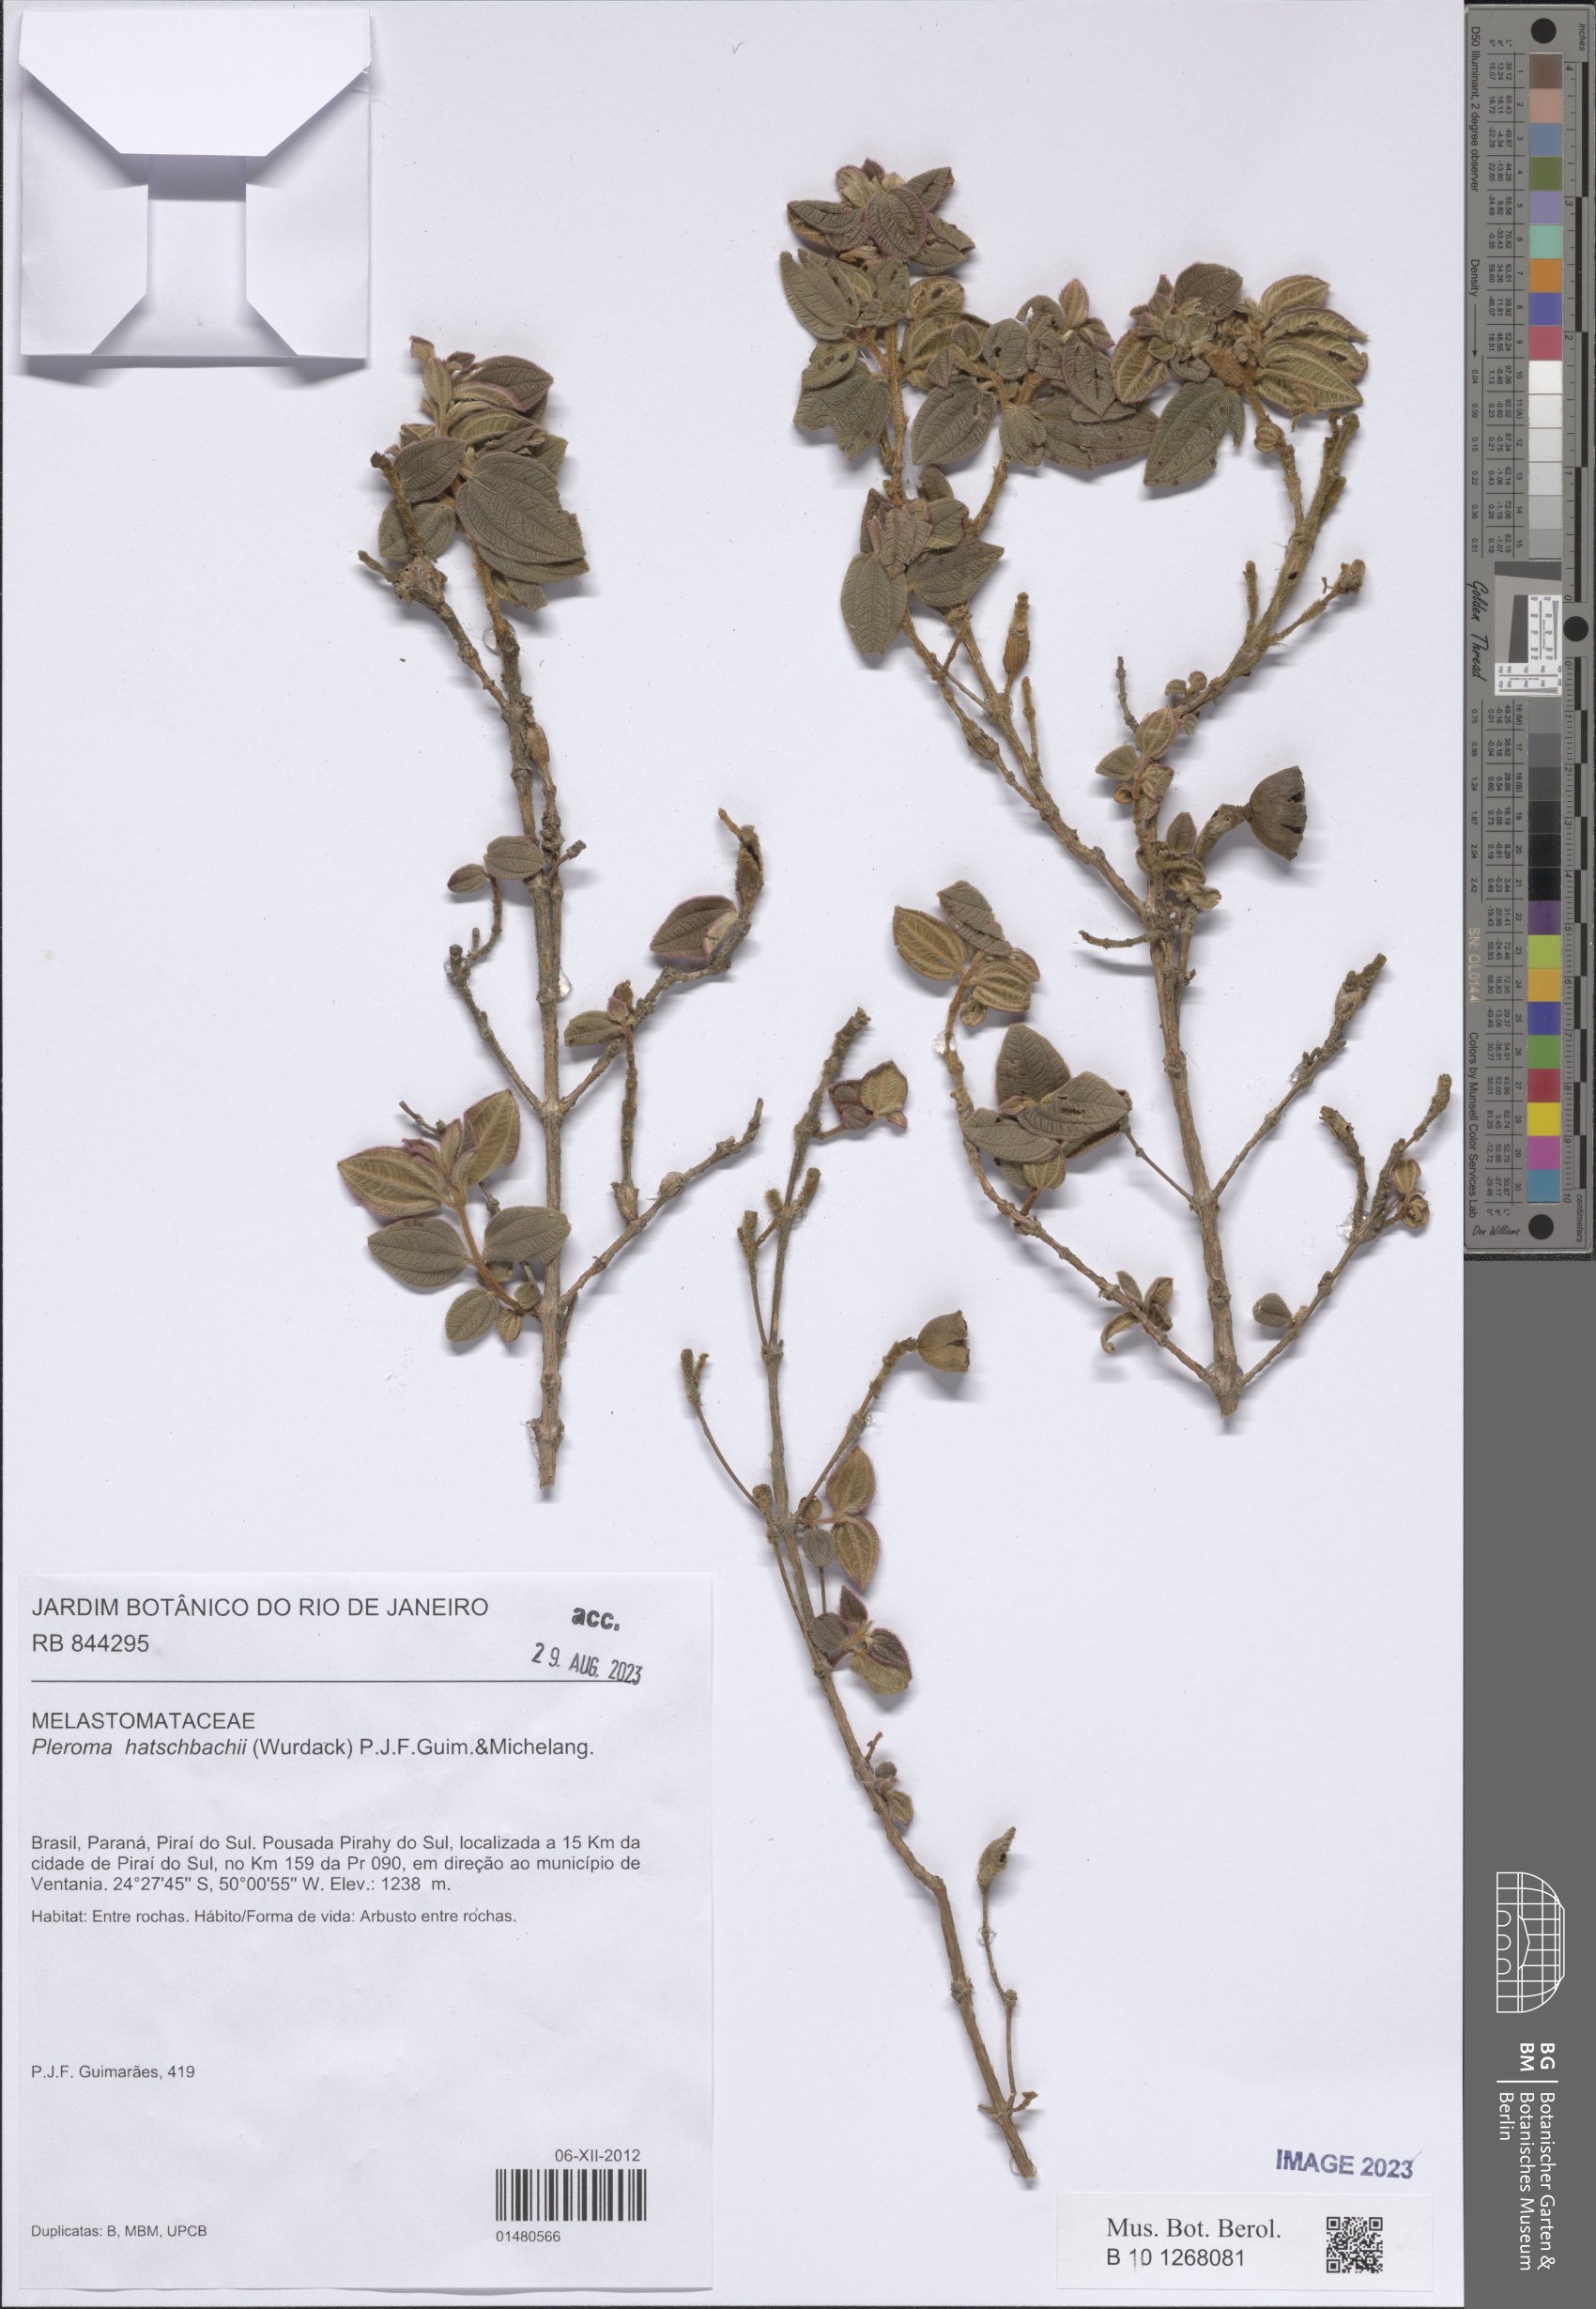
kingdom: Plantae
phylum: Tracheophyta
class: Magnoliopsida
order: Myrtales
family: Melastomataceae
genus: Pleroma
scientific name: Pleroma hatschbachii
